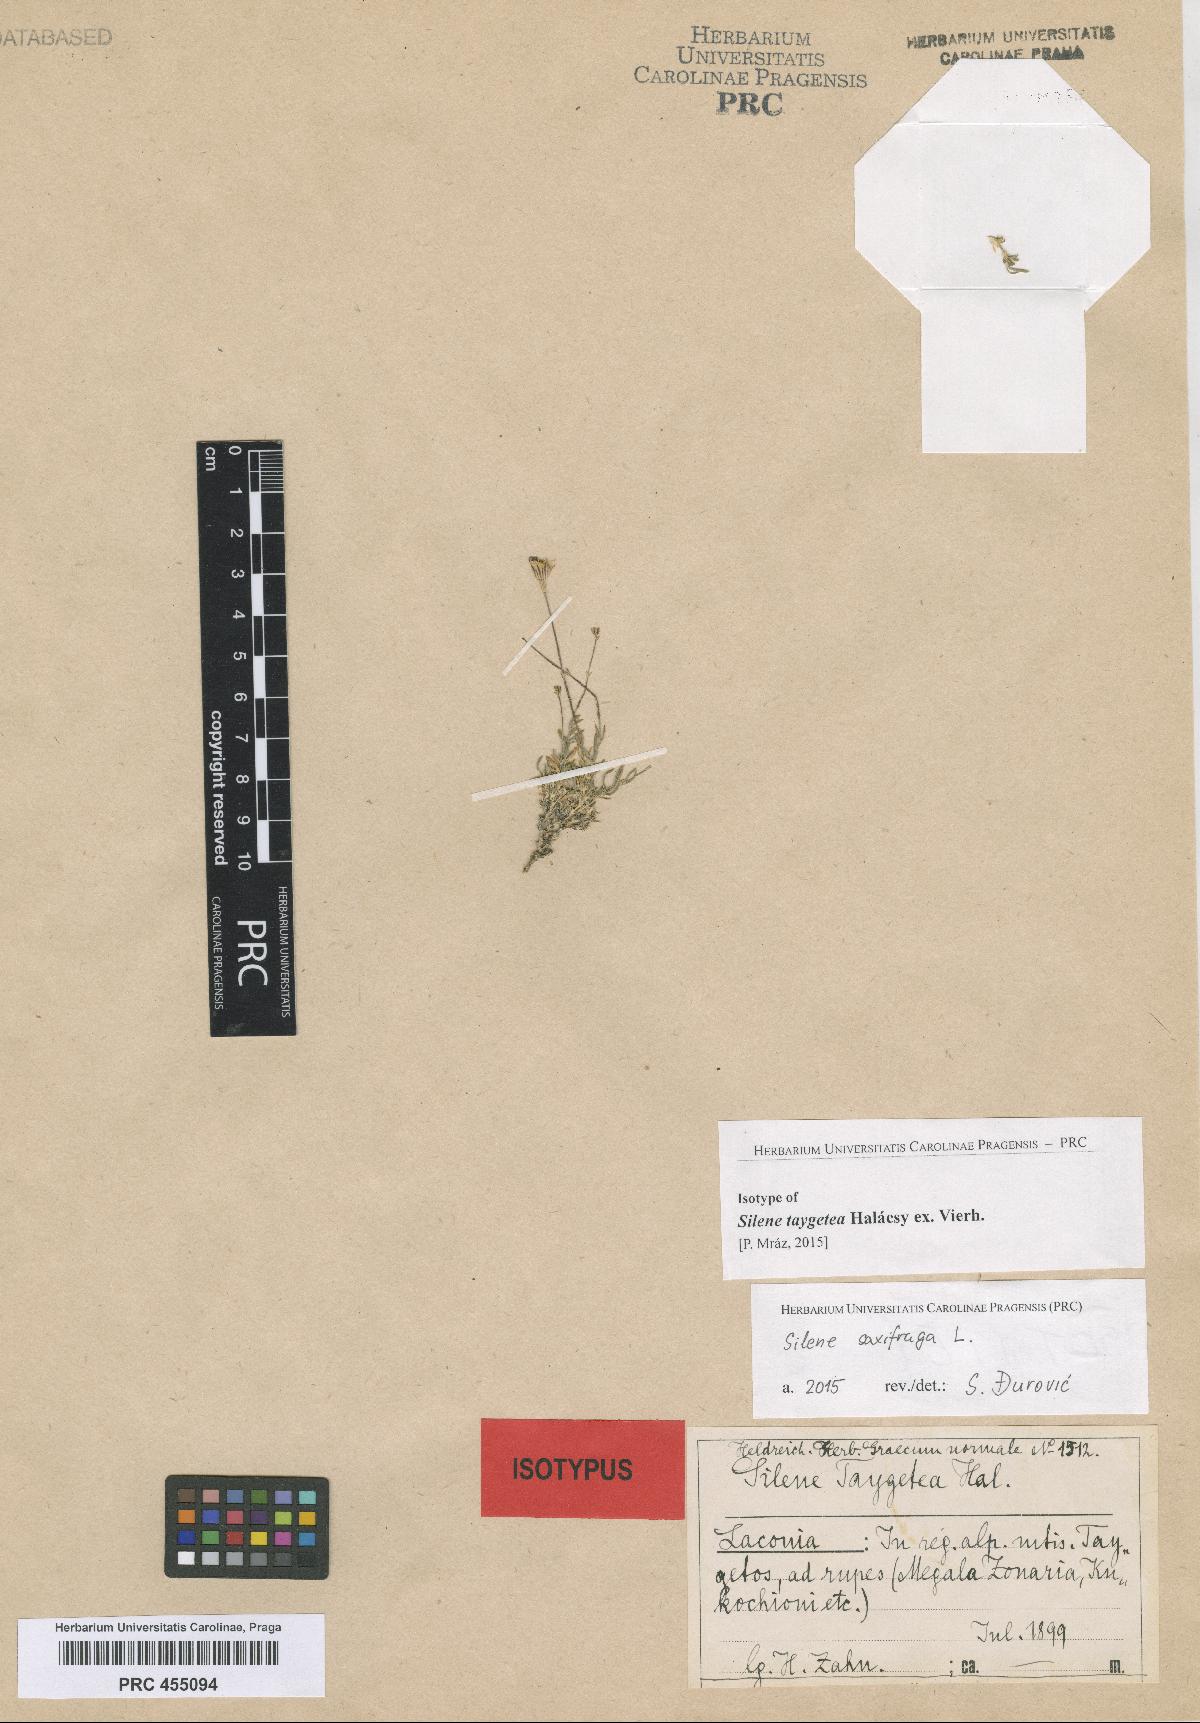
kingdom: Plantae
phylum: Tracheophyta
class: Magnoliopsida
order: Caryophyllales
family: Caryophyllaceae
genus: Silene
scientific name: Silene saxifraga
